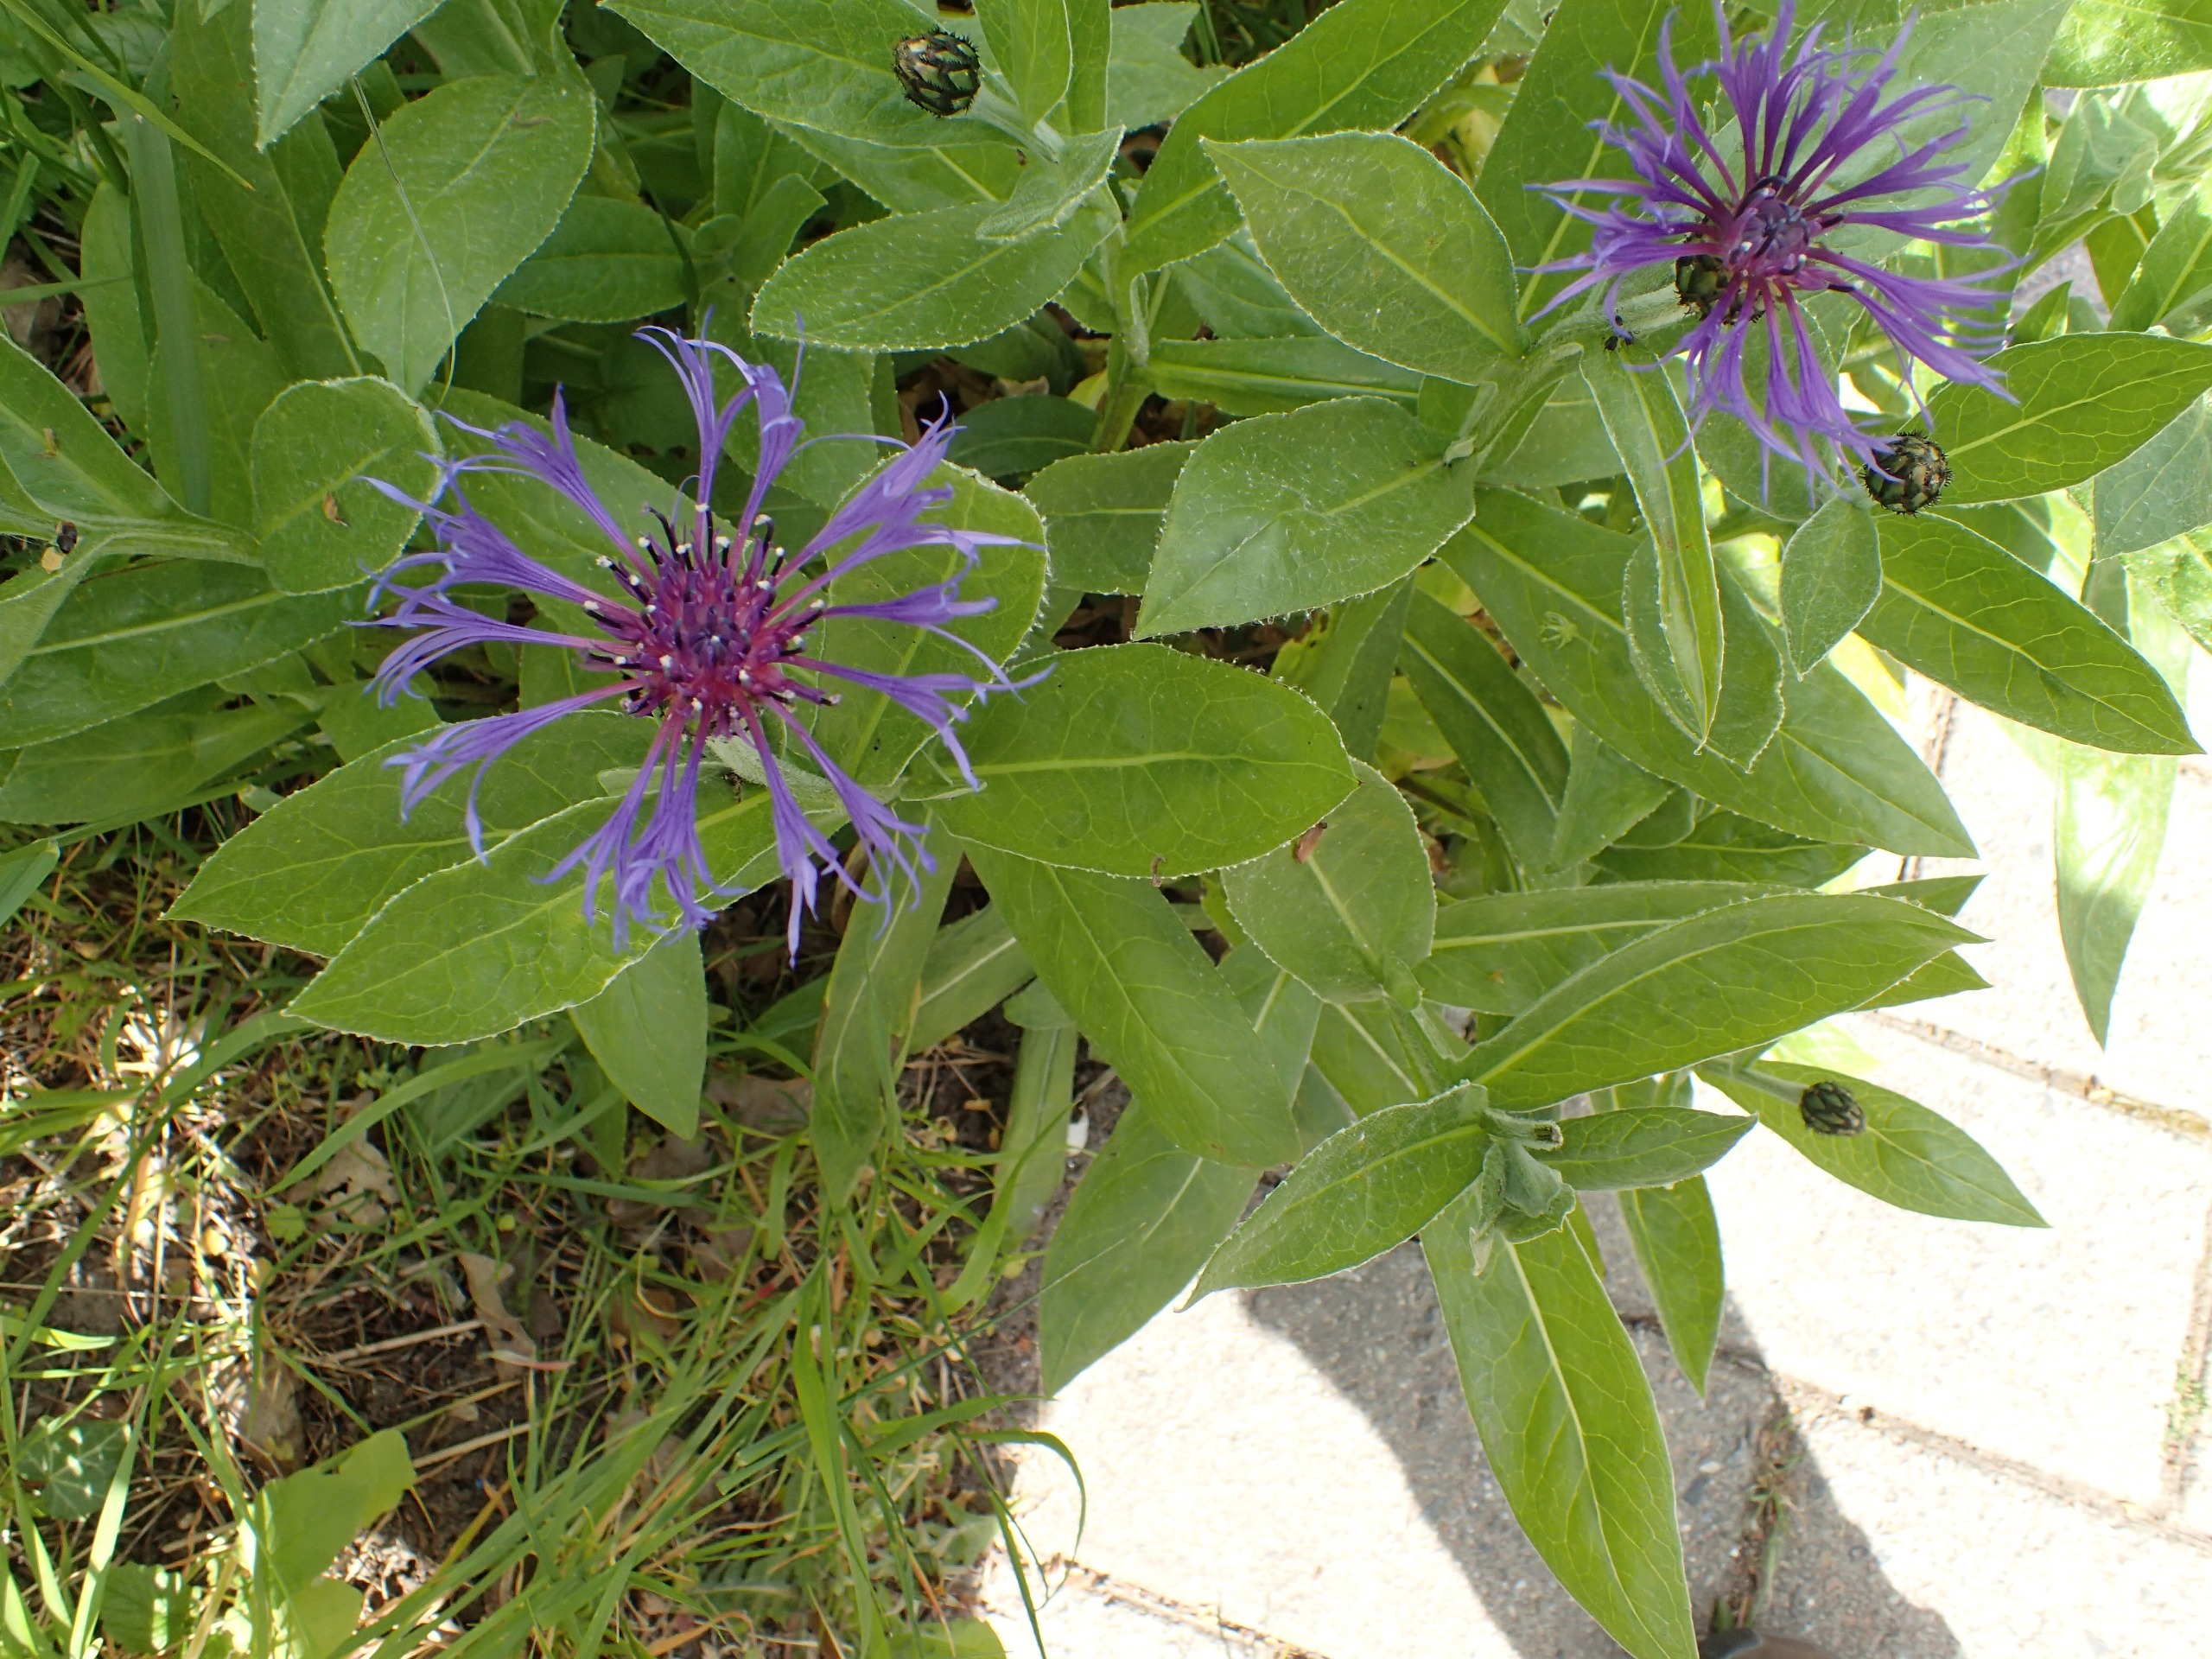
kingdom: Plantae
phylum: Tracheophyta
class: Magnoliopsida
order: Asterales
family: Asteraceae
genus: Centaurea
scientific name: Centaurea montana
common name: Bjerg-knopurt
